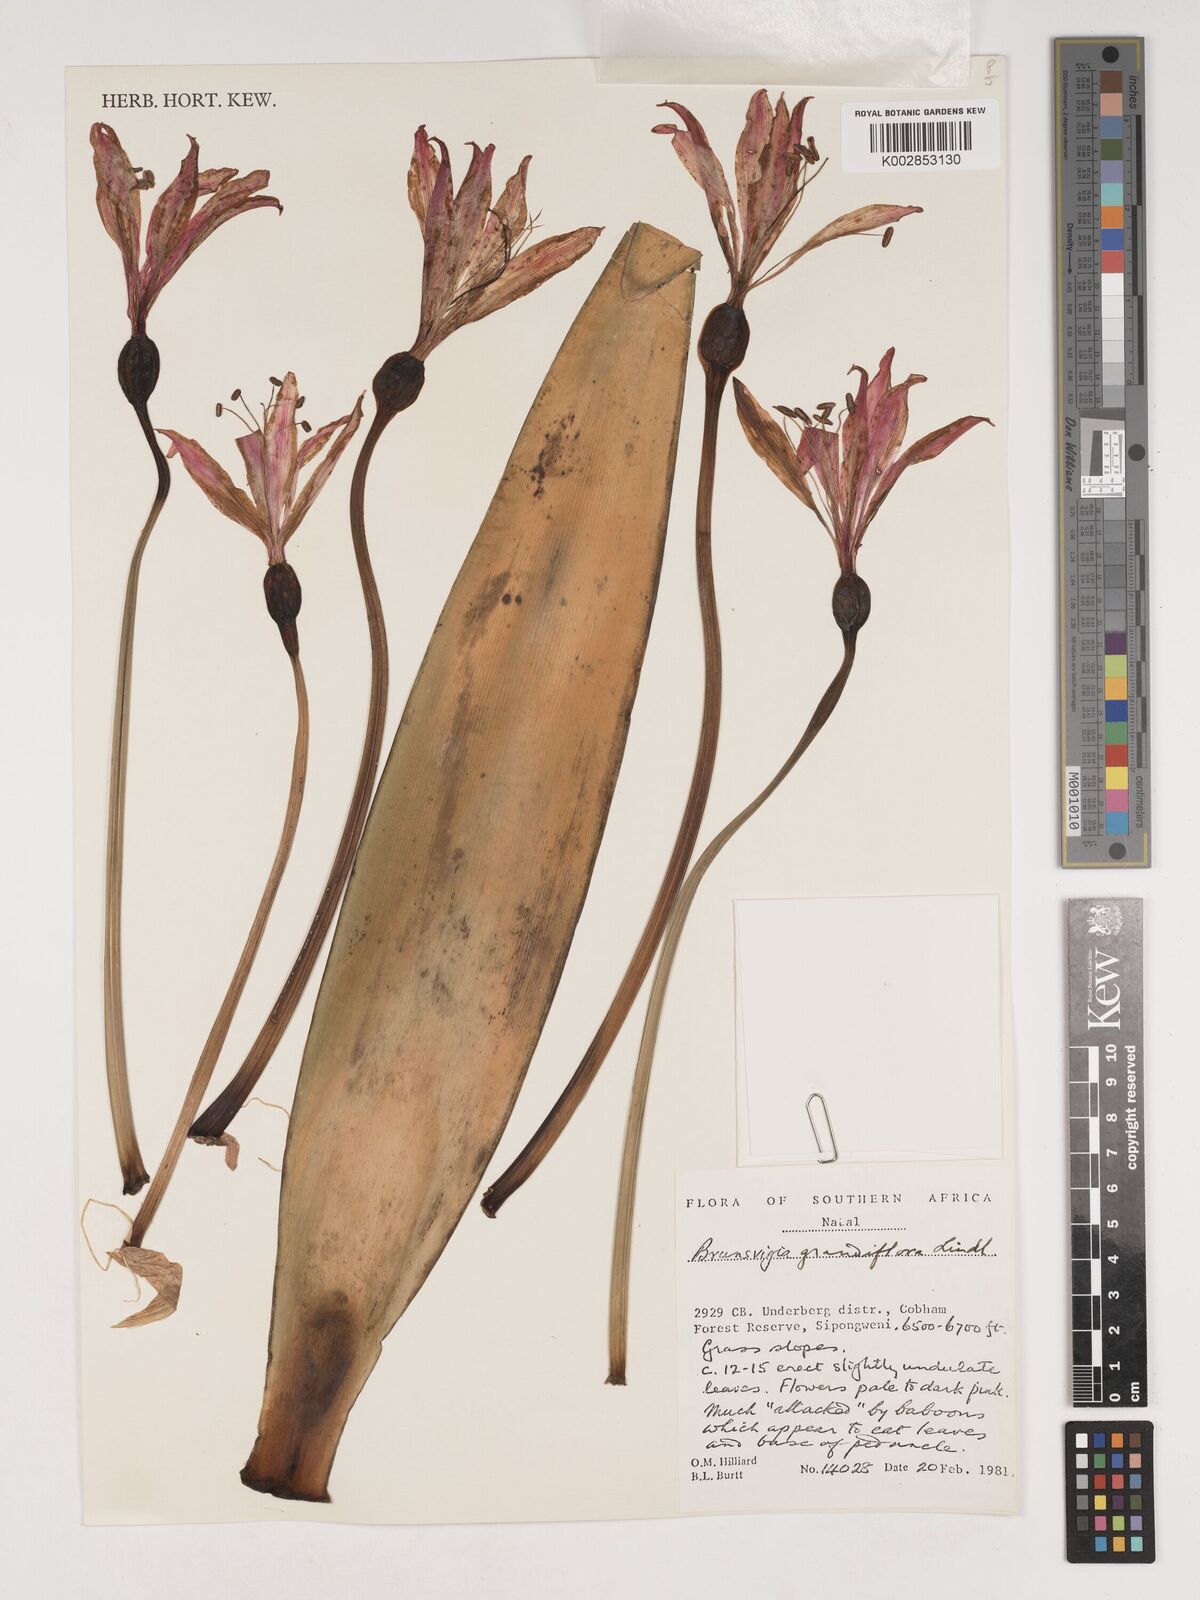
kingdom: Plantae
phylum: Tracheophyta
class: Liliopsida
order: Asparagales
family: Amaryllidaceae
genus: Brunsvigia
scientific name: Brunsvigia grandiflora
